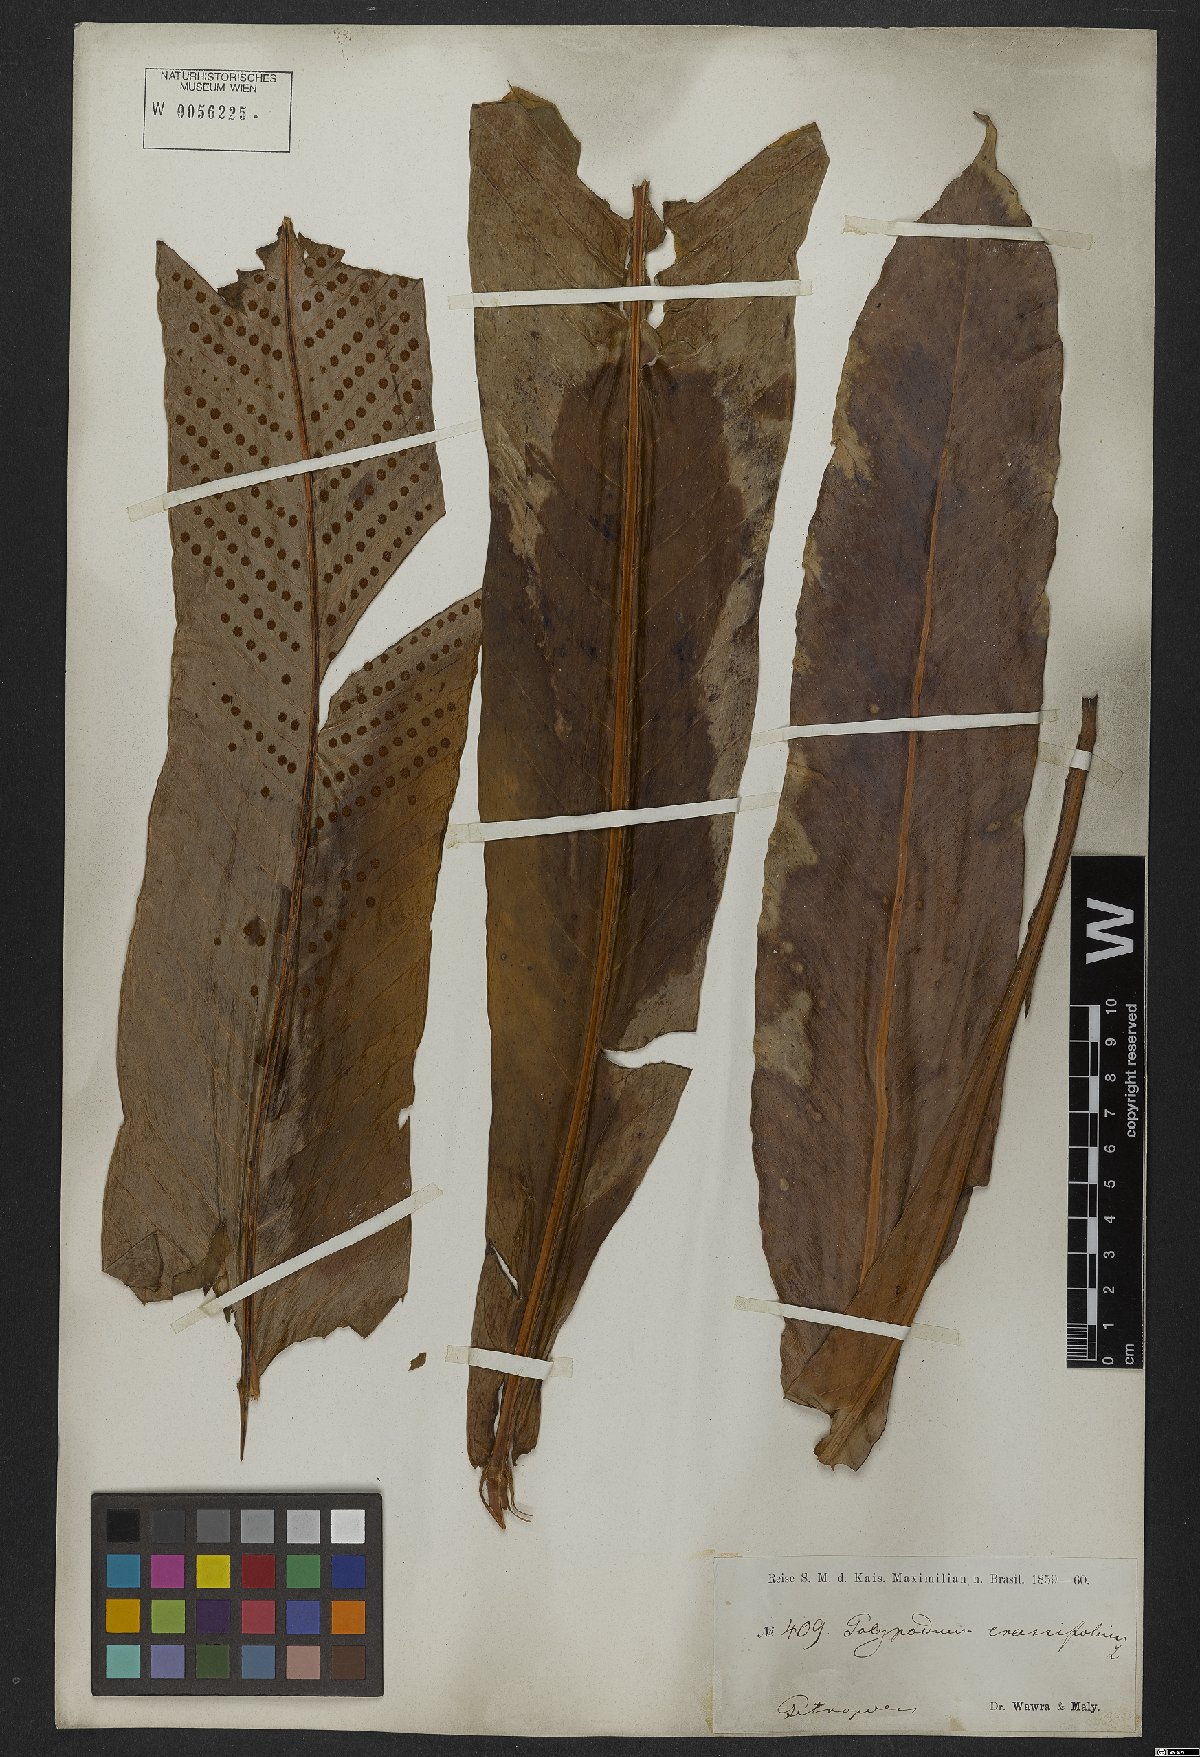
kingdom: Plantae
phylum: Tracheophyta
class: Polypodiopsida
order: Polypodiales
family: Polypodiaceae
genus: Niphidium
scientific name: Niphidium crassifolium
